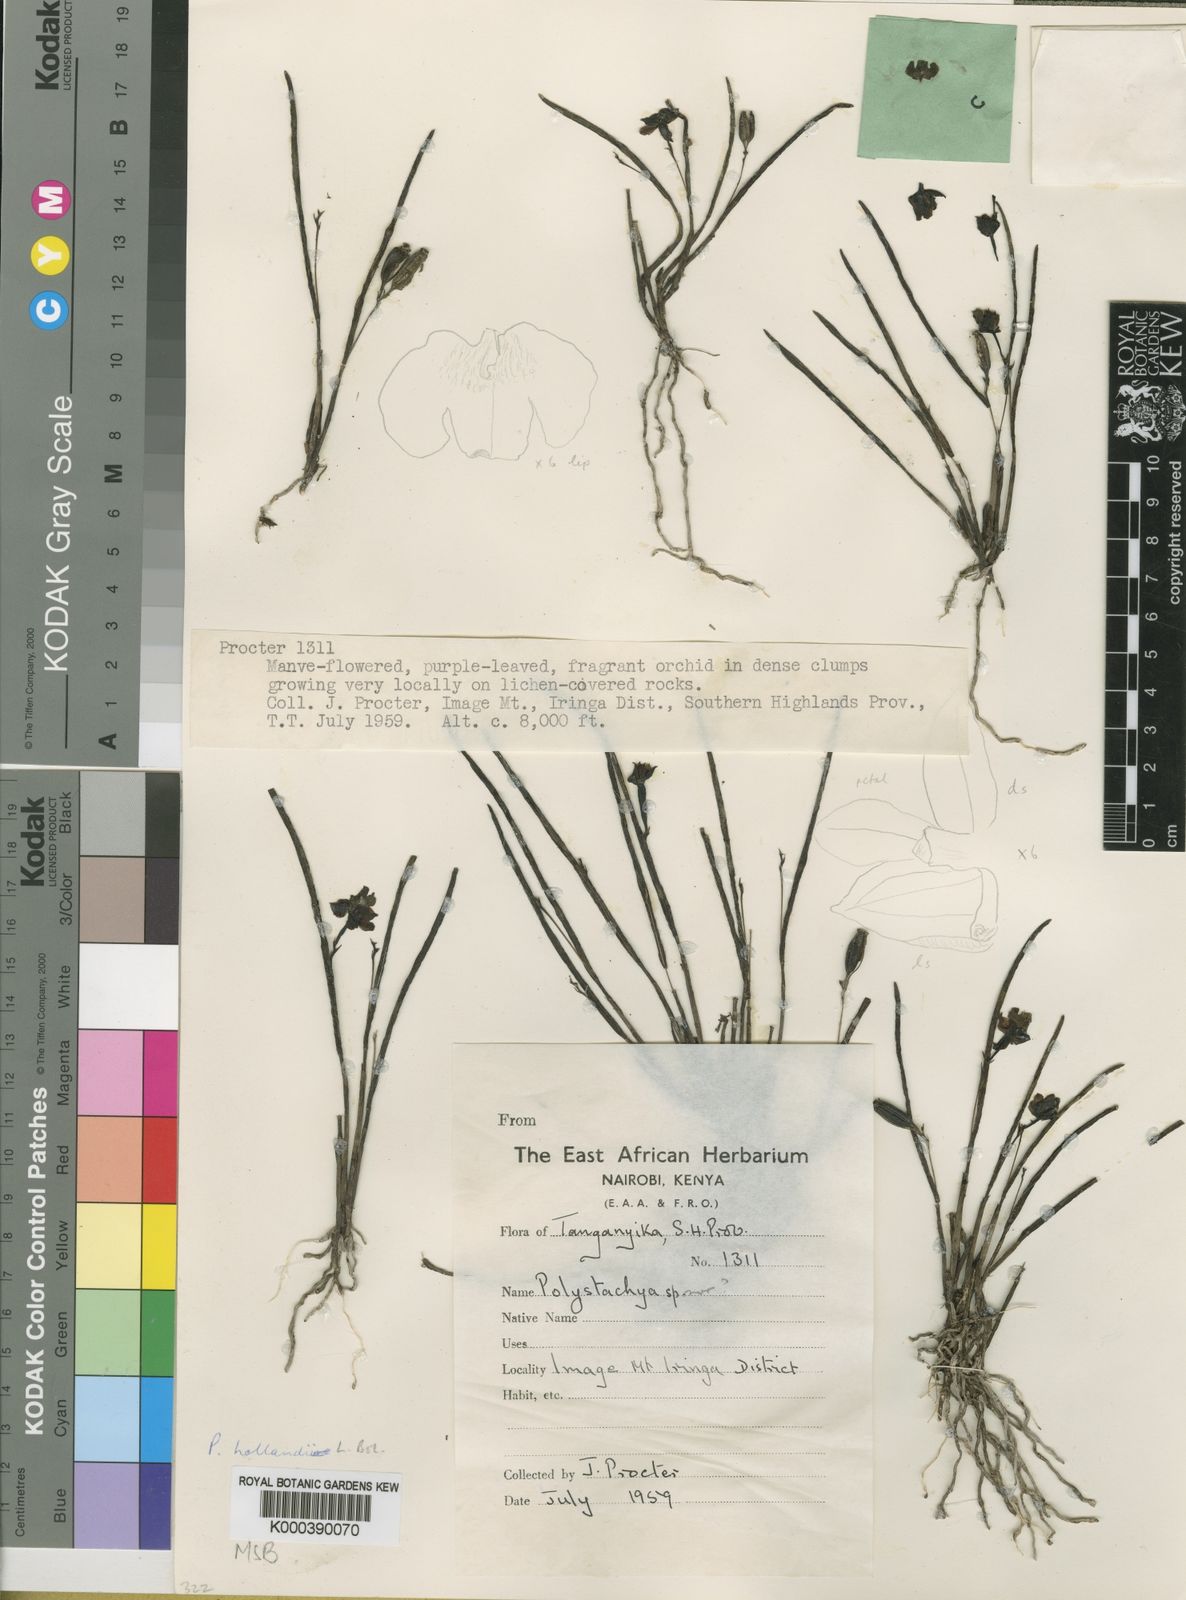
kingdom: Plantae
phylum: Tracheophyta
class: Liliopsida
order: Asparagales
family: Orchidaceae
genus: Polystachya
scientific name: Polystachya caespitifica
